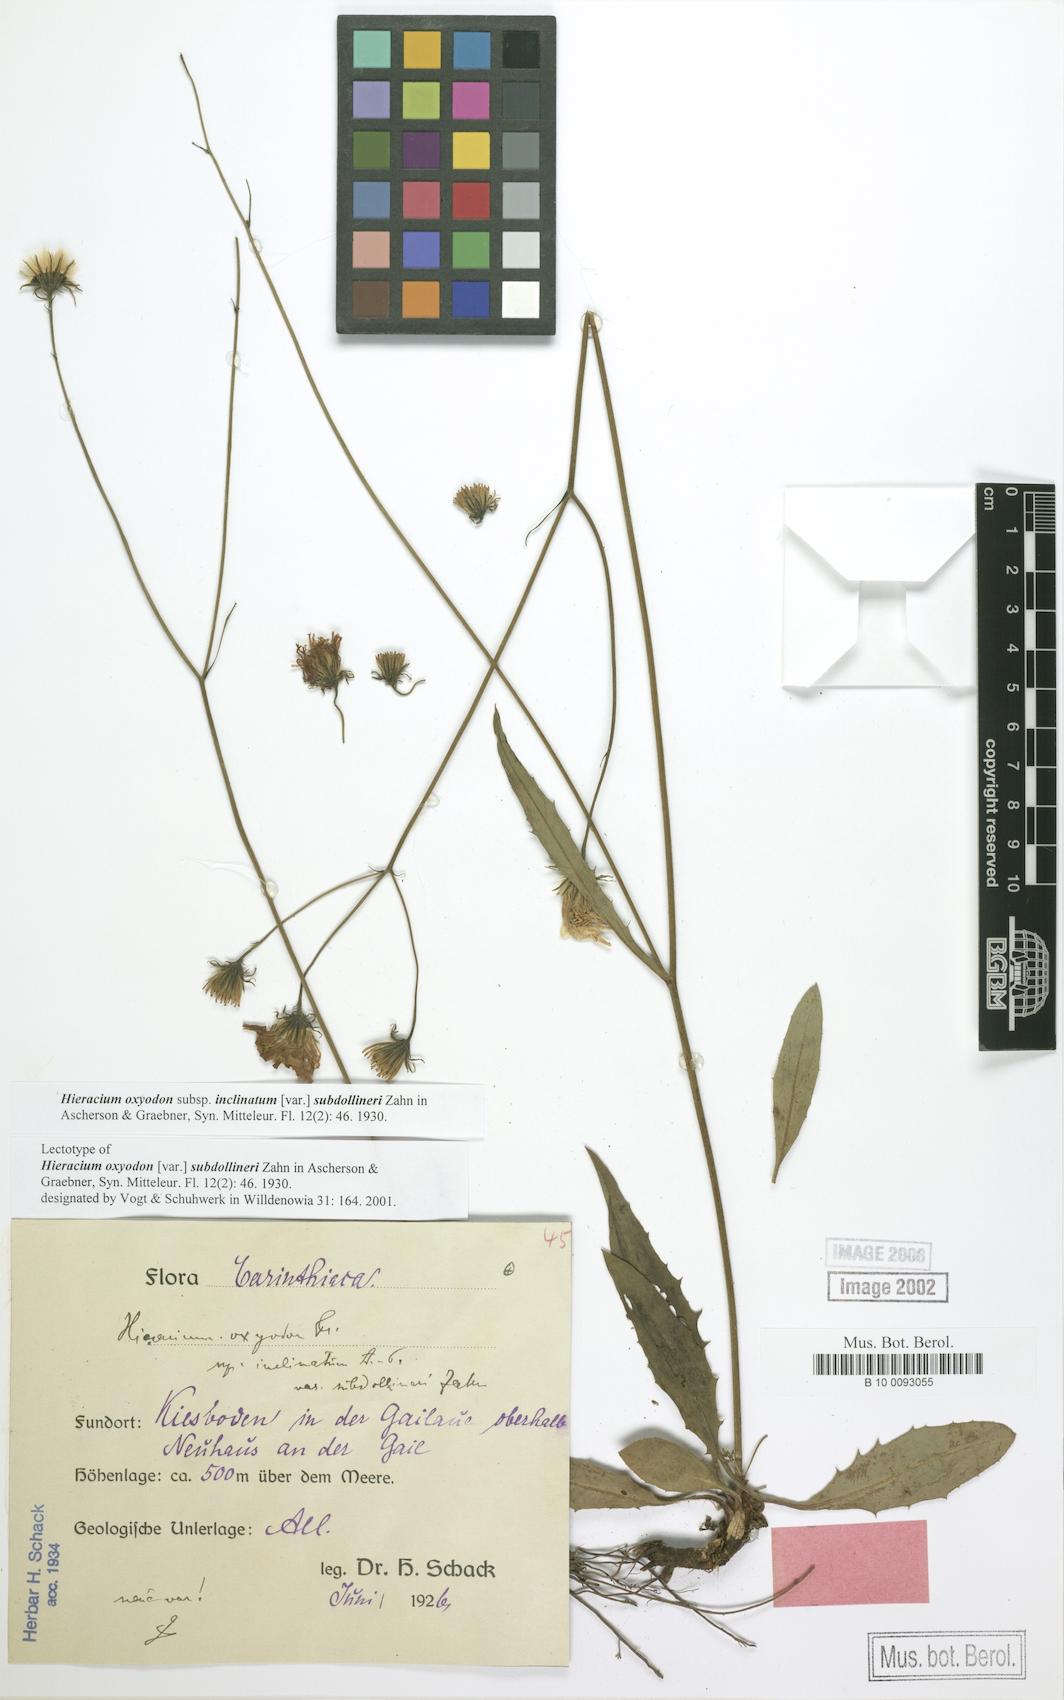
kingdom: Plantae
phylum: Tracheophyta
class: Magnoliopsida
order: Asterales
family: Asteraceae
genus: Hieracium
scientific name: Hieracium oxyodon
